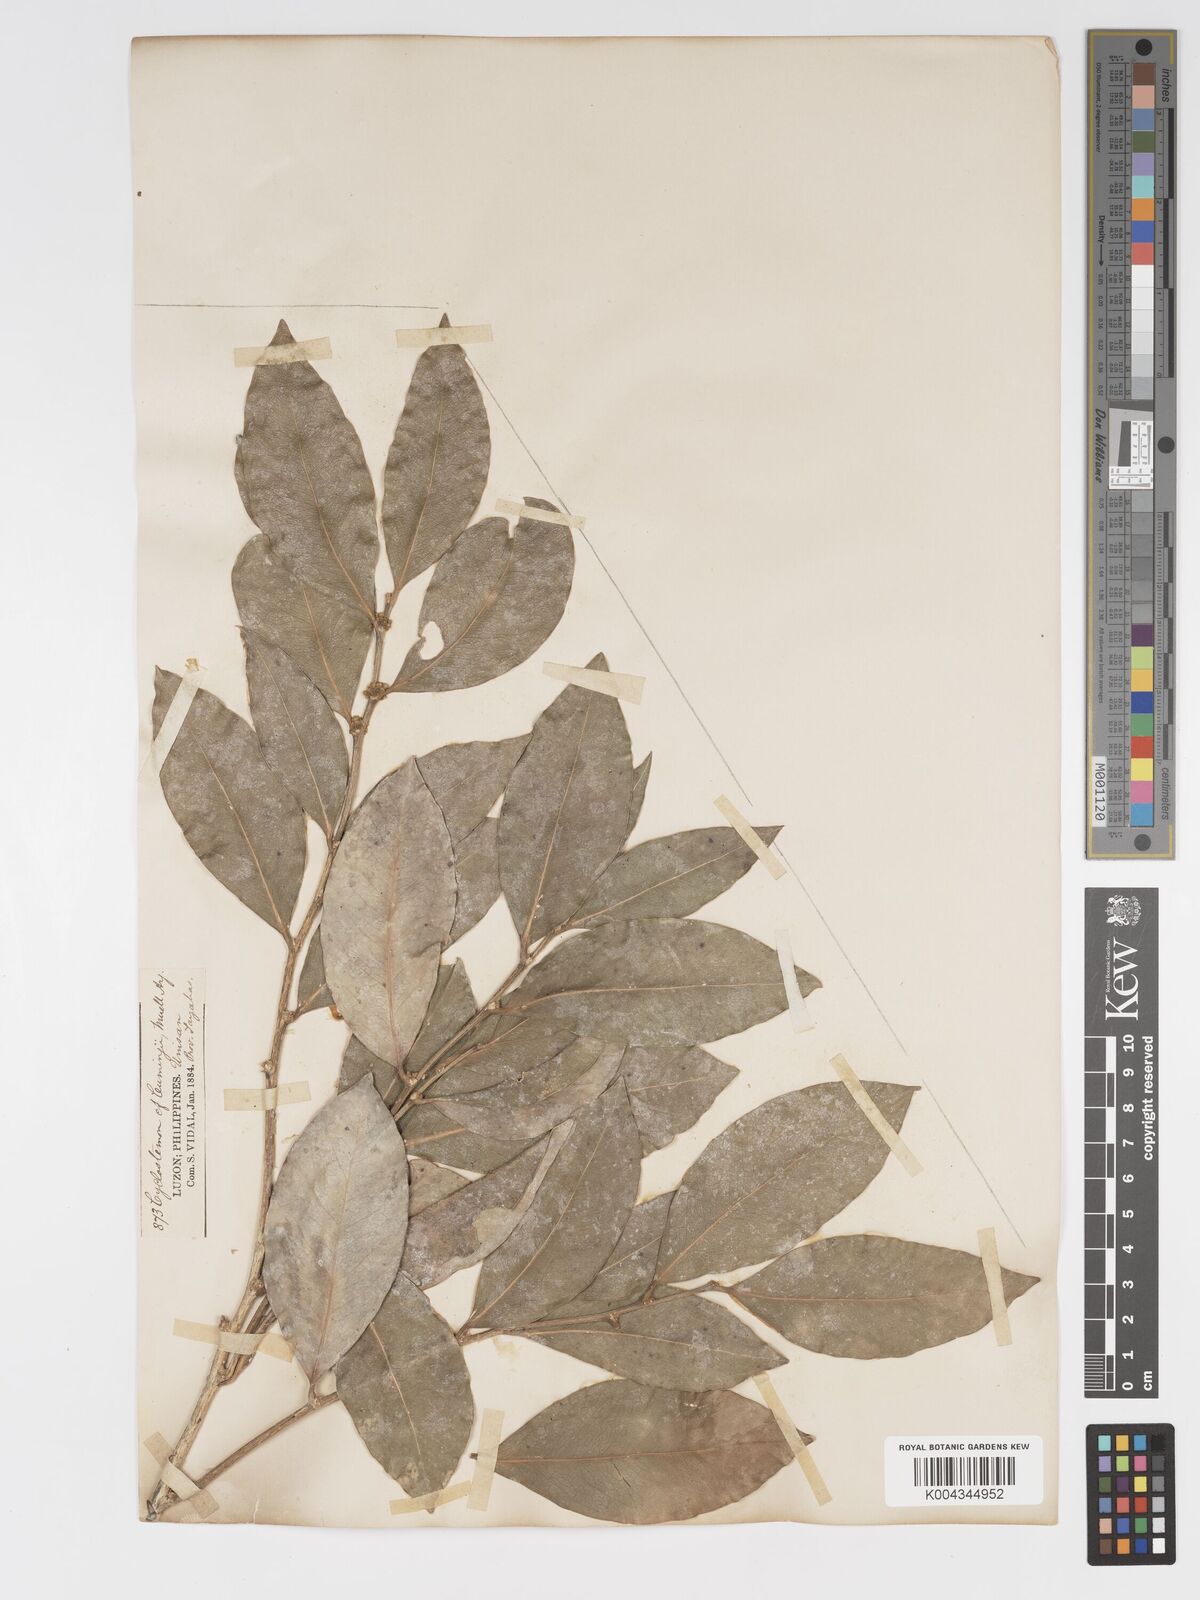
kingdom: Plantae
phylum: Tracheophyta
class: Magnoliopsida
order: Malpighiales
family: Putranjivaceae
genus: Drypetes
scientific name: Drypetes littoralis
